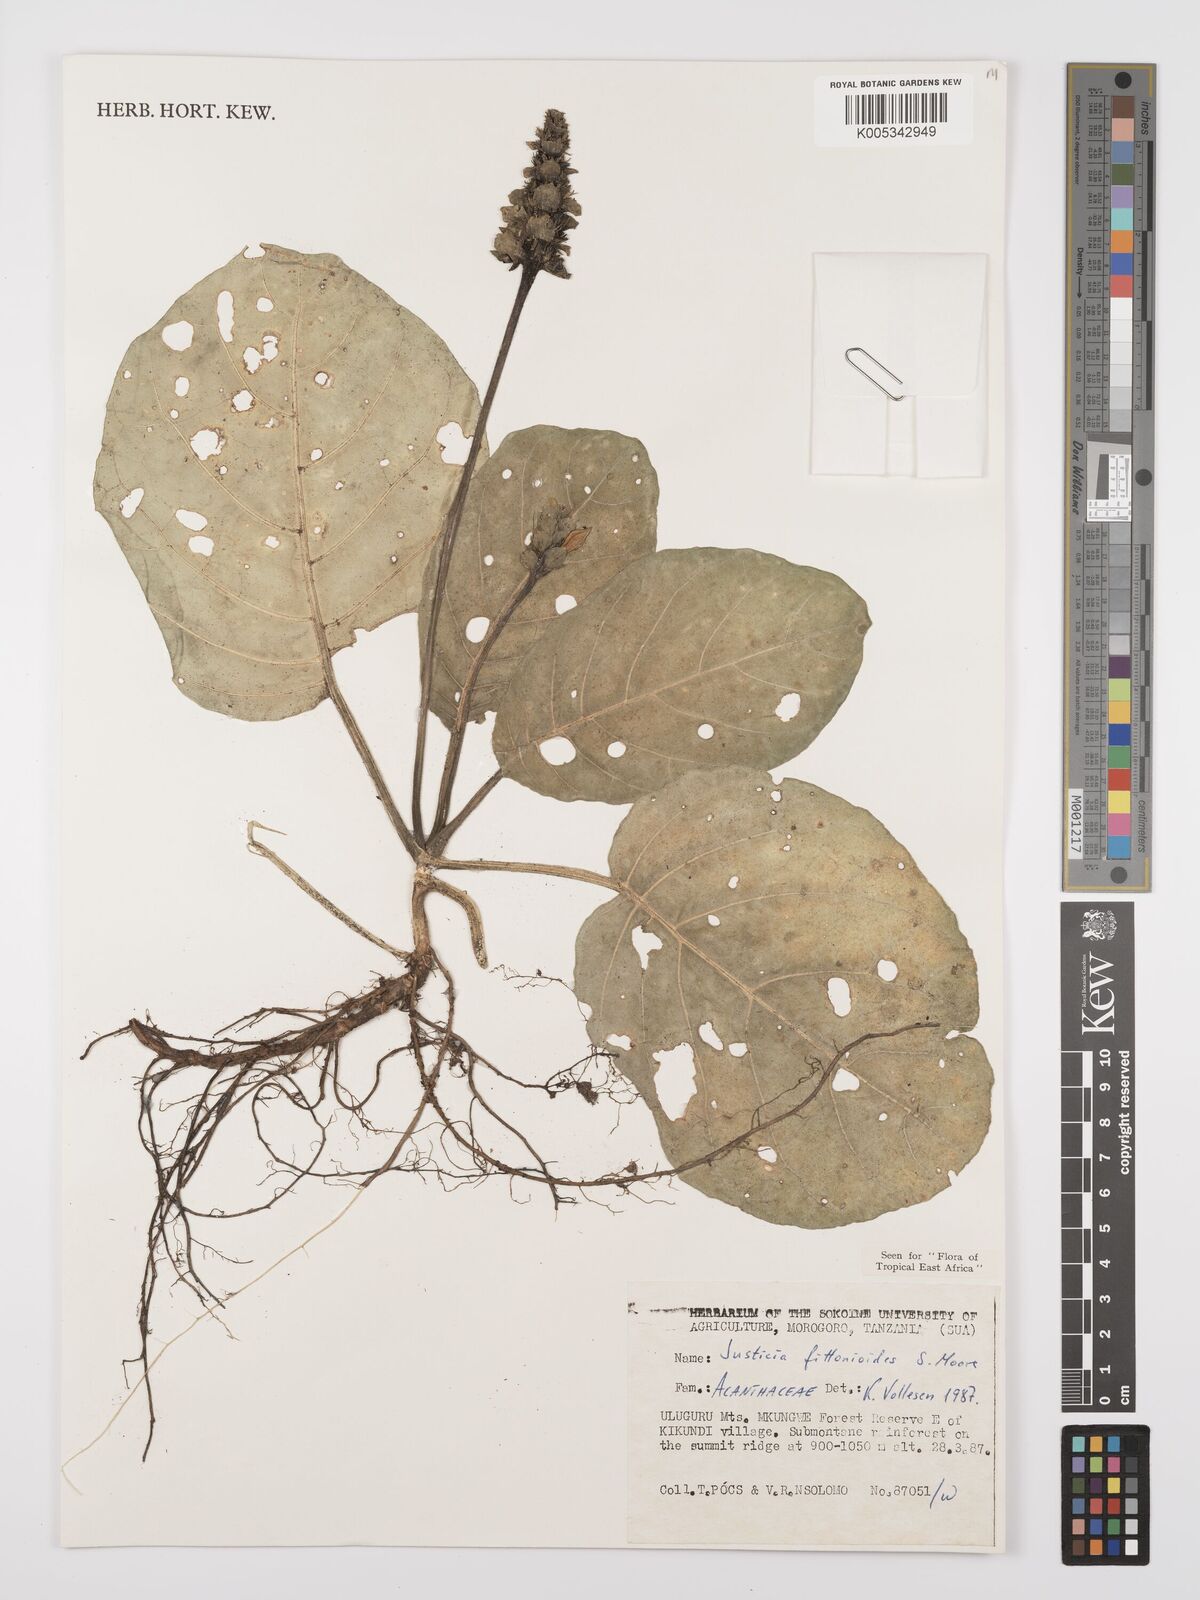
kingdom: Plantae
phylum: Tracheophyta
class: Magnoliopsida
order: Lamiales
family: Acanthaceae
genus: Justicia
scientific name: Justicia
